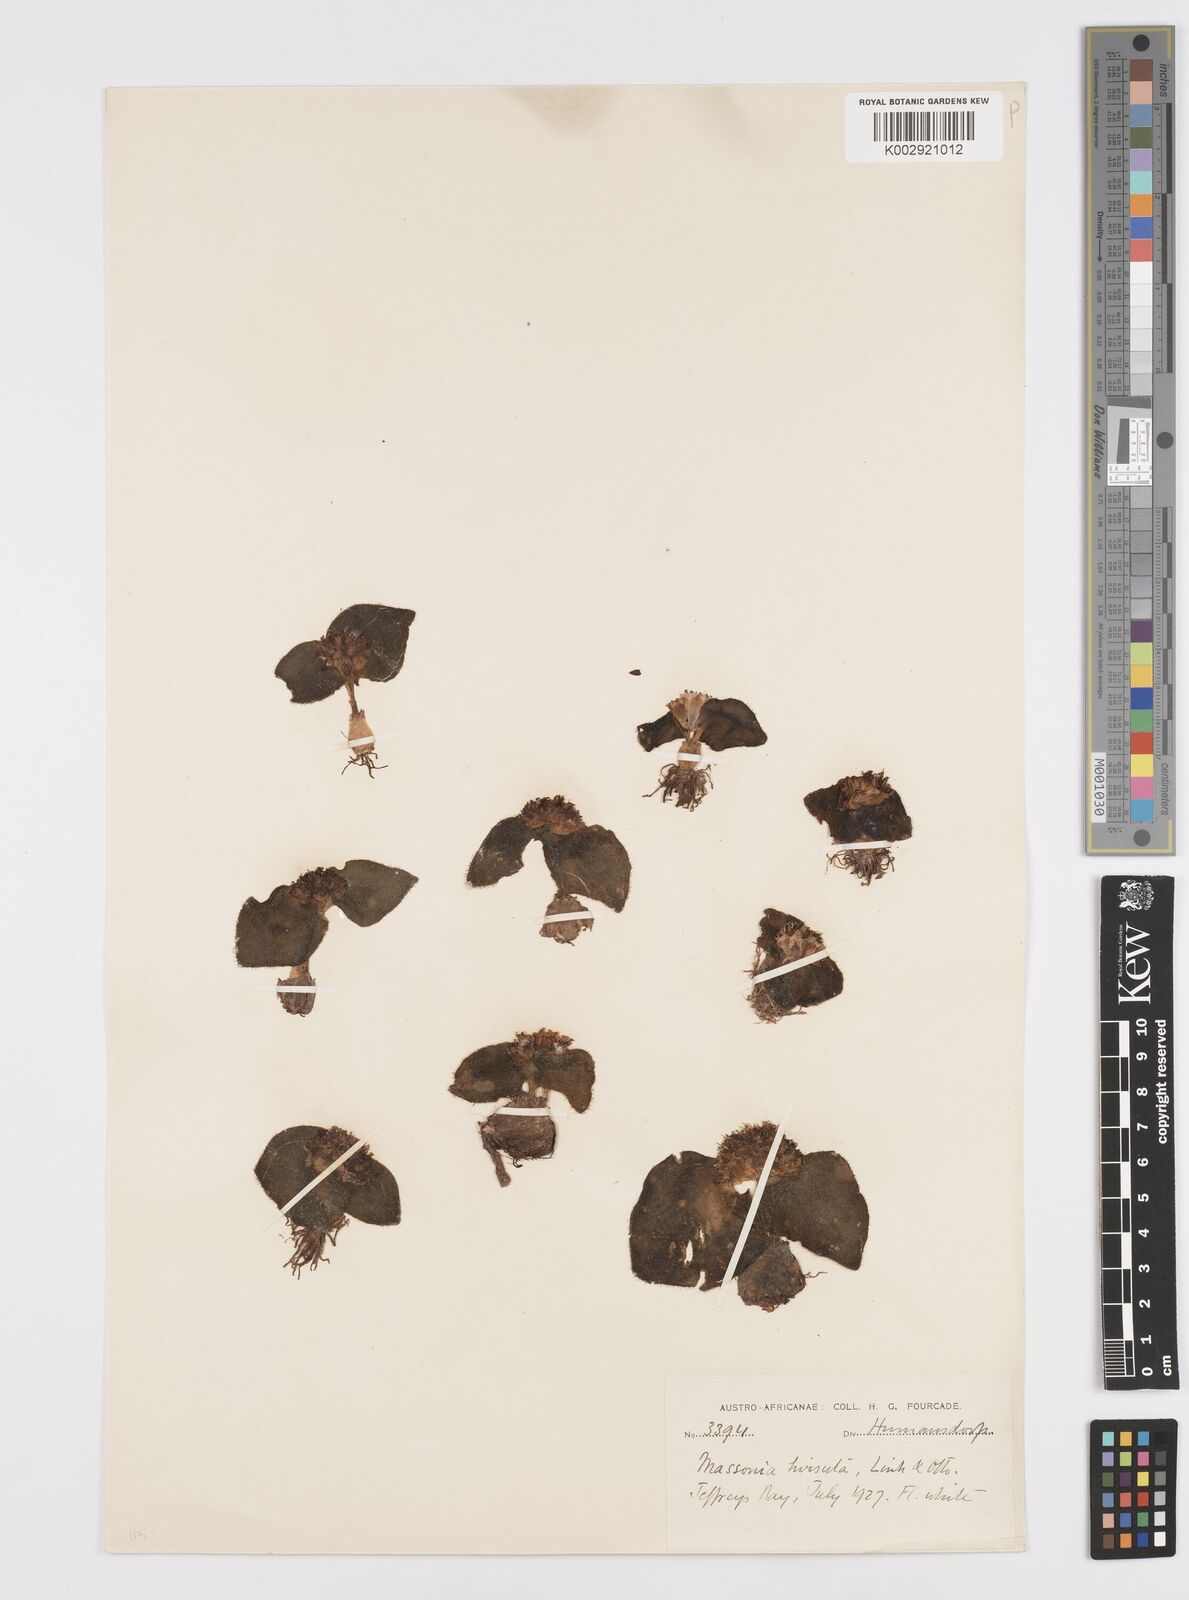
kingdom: Plantae
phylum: Tracheophyta
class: Liliopsida
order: Asparagales
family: Asparagaceae
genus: Massonia
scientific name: Massonia
